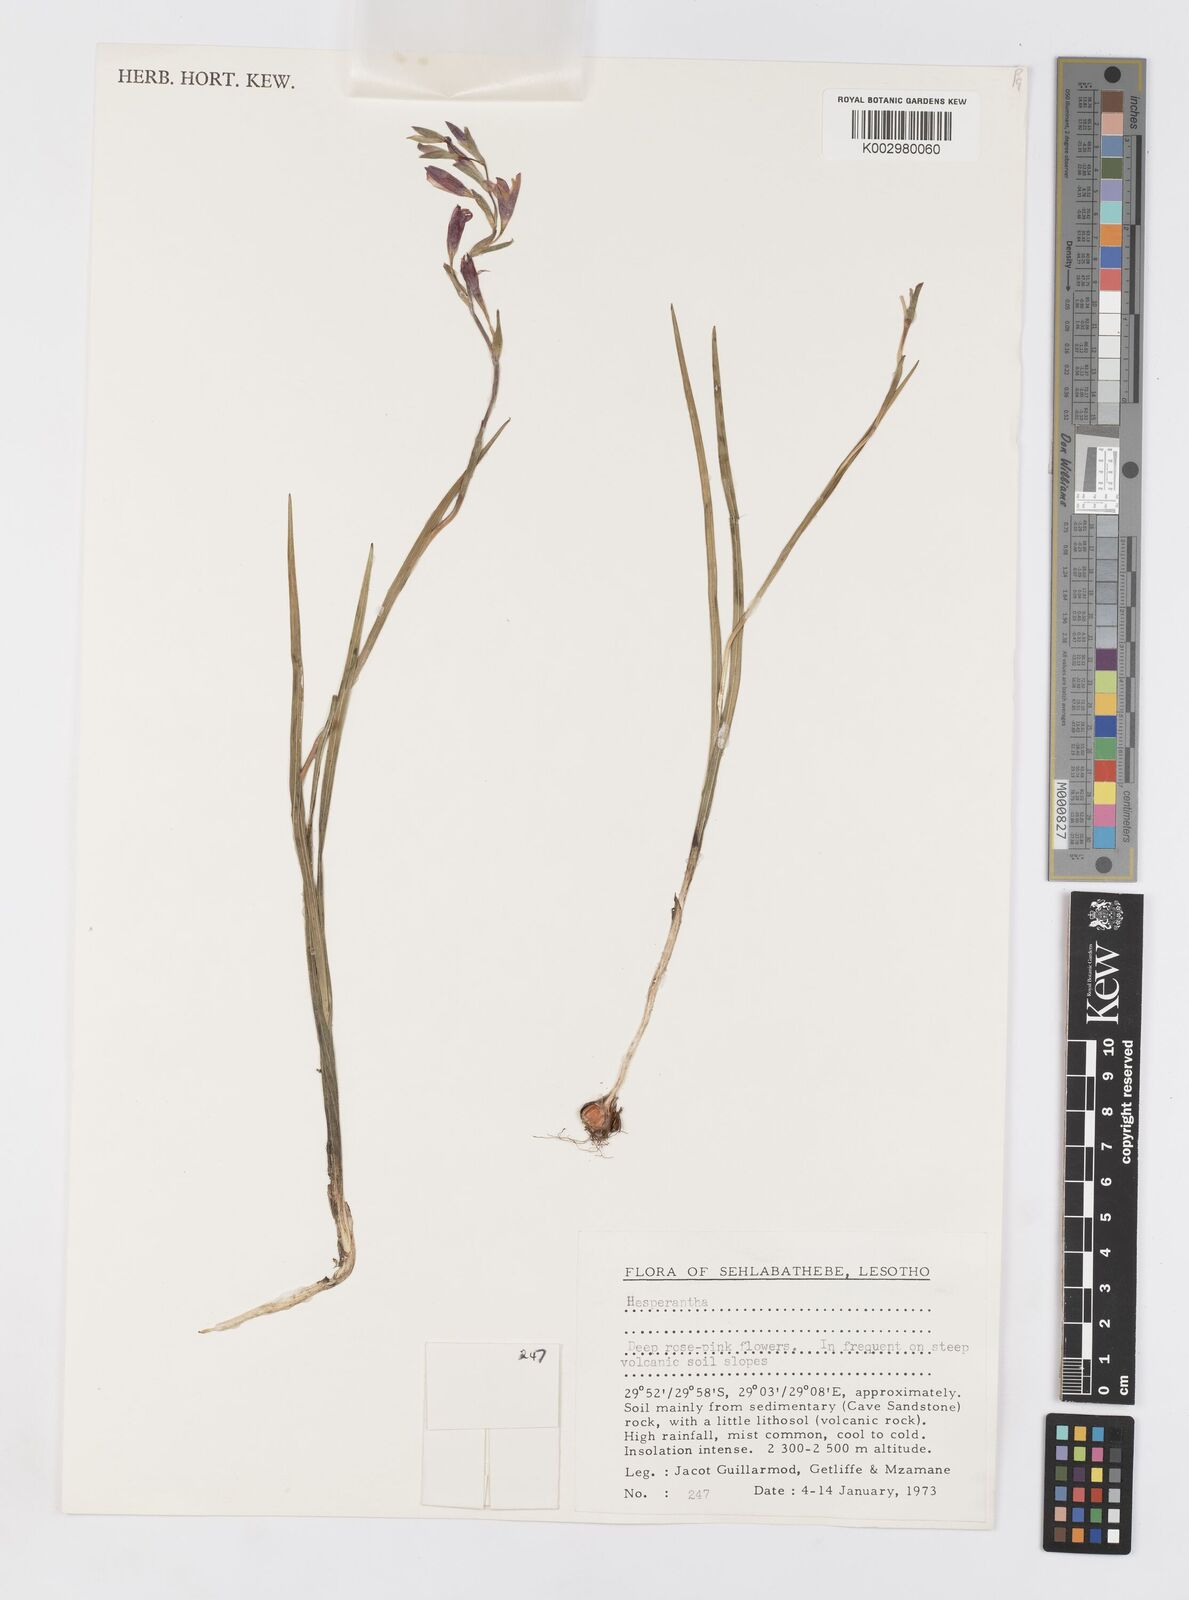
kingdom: Plantae
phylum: Tracheophyta
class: Liliopsida
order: Asparagales
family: Iridaceae
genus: Hesperantha
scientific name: Hesperantha baurii
